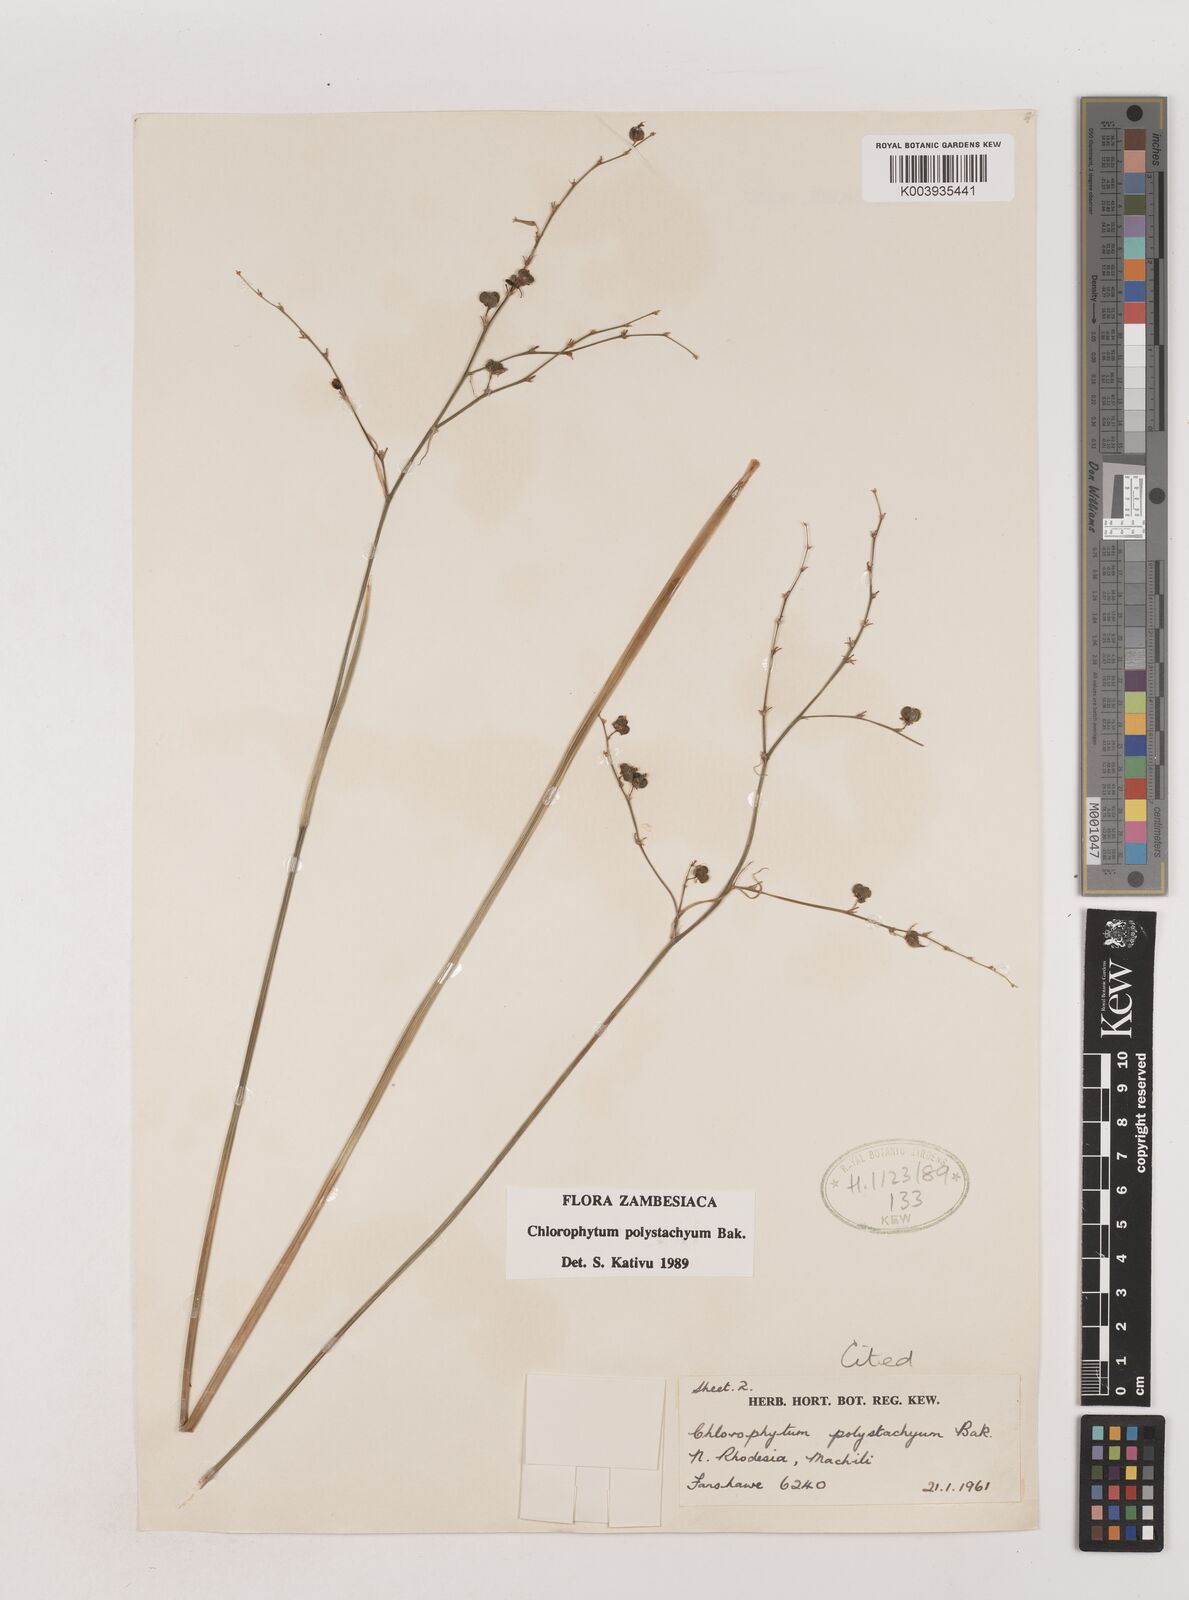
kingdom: Plantae
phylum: Tracheophyta
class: Liliopsida
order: Asparagales
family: Asparagaceae
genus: Chlorophytum
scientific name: Chlorophytum polystachys
